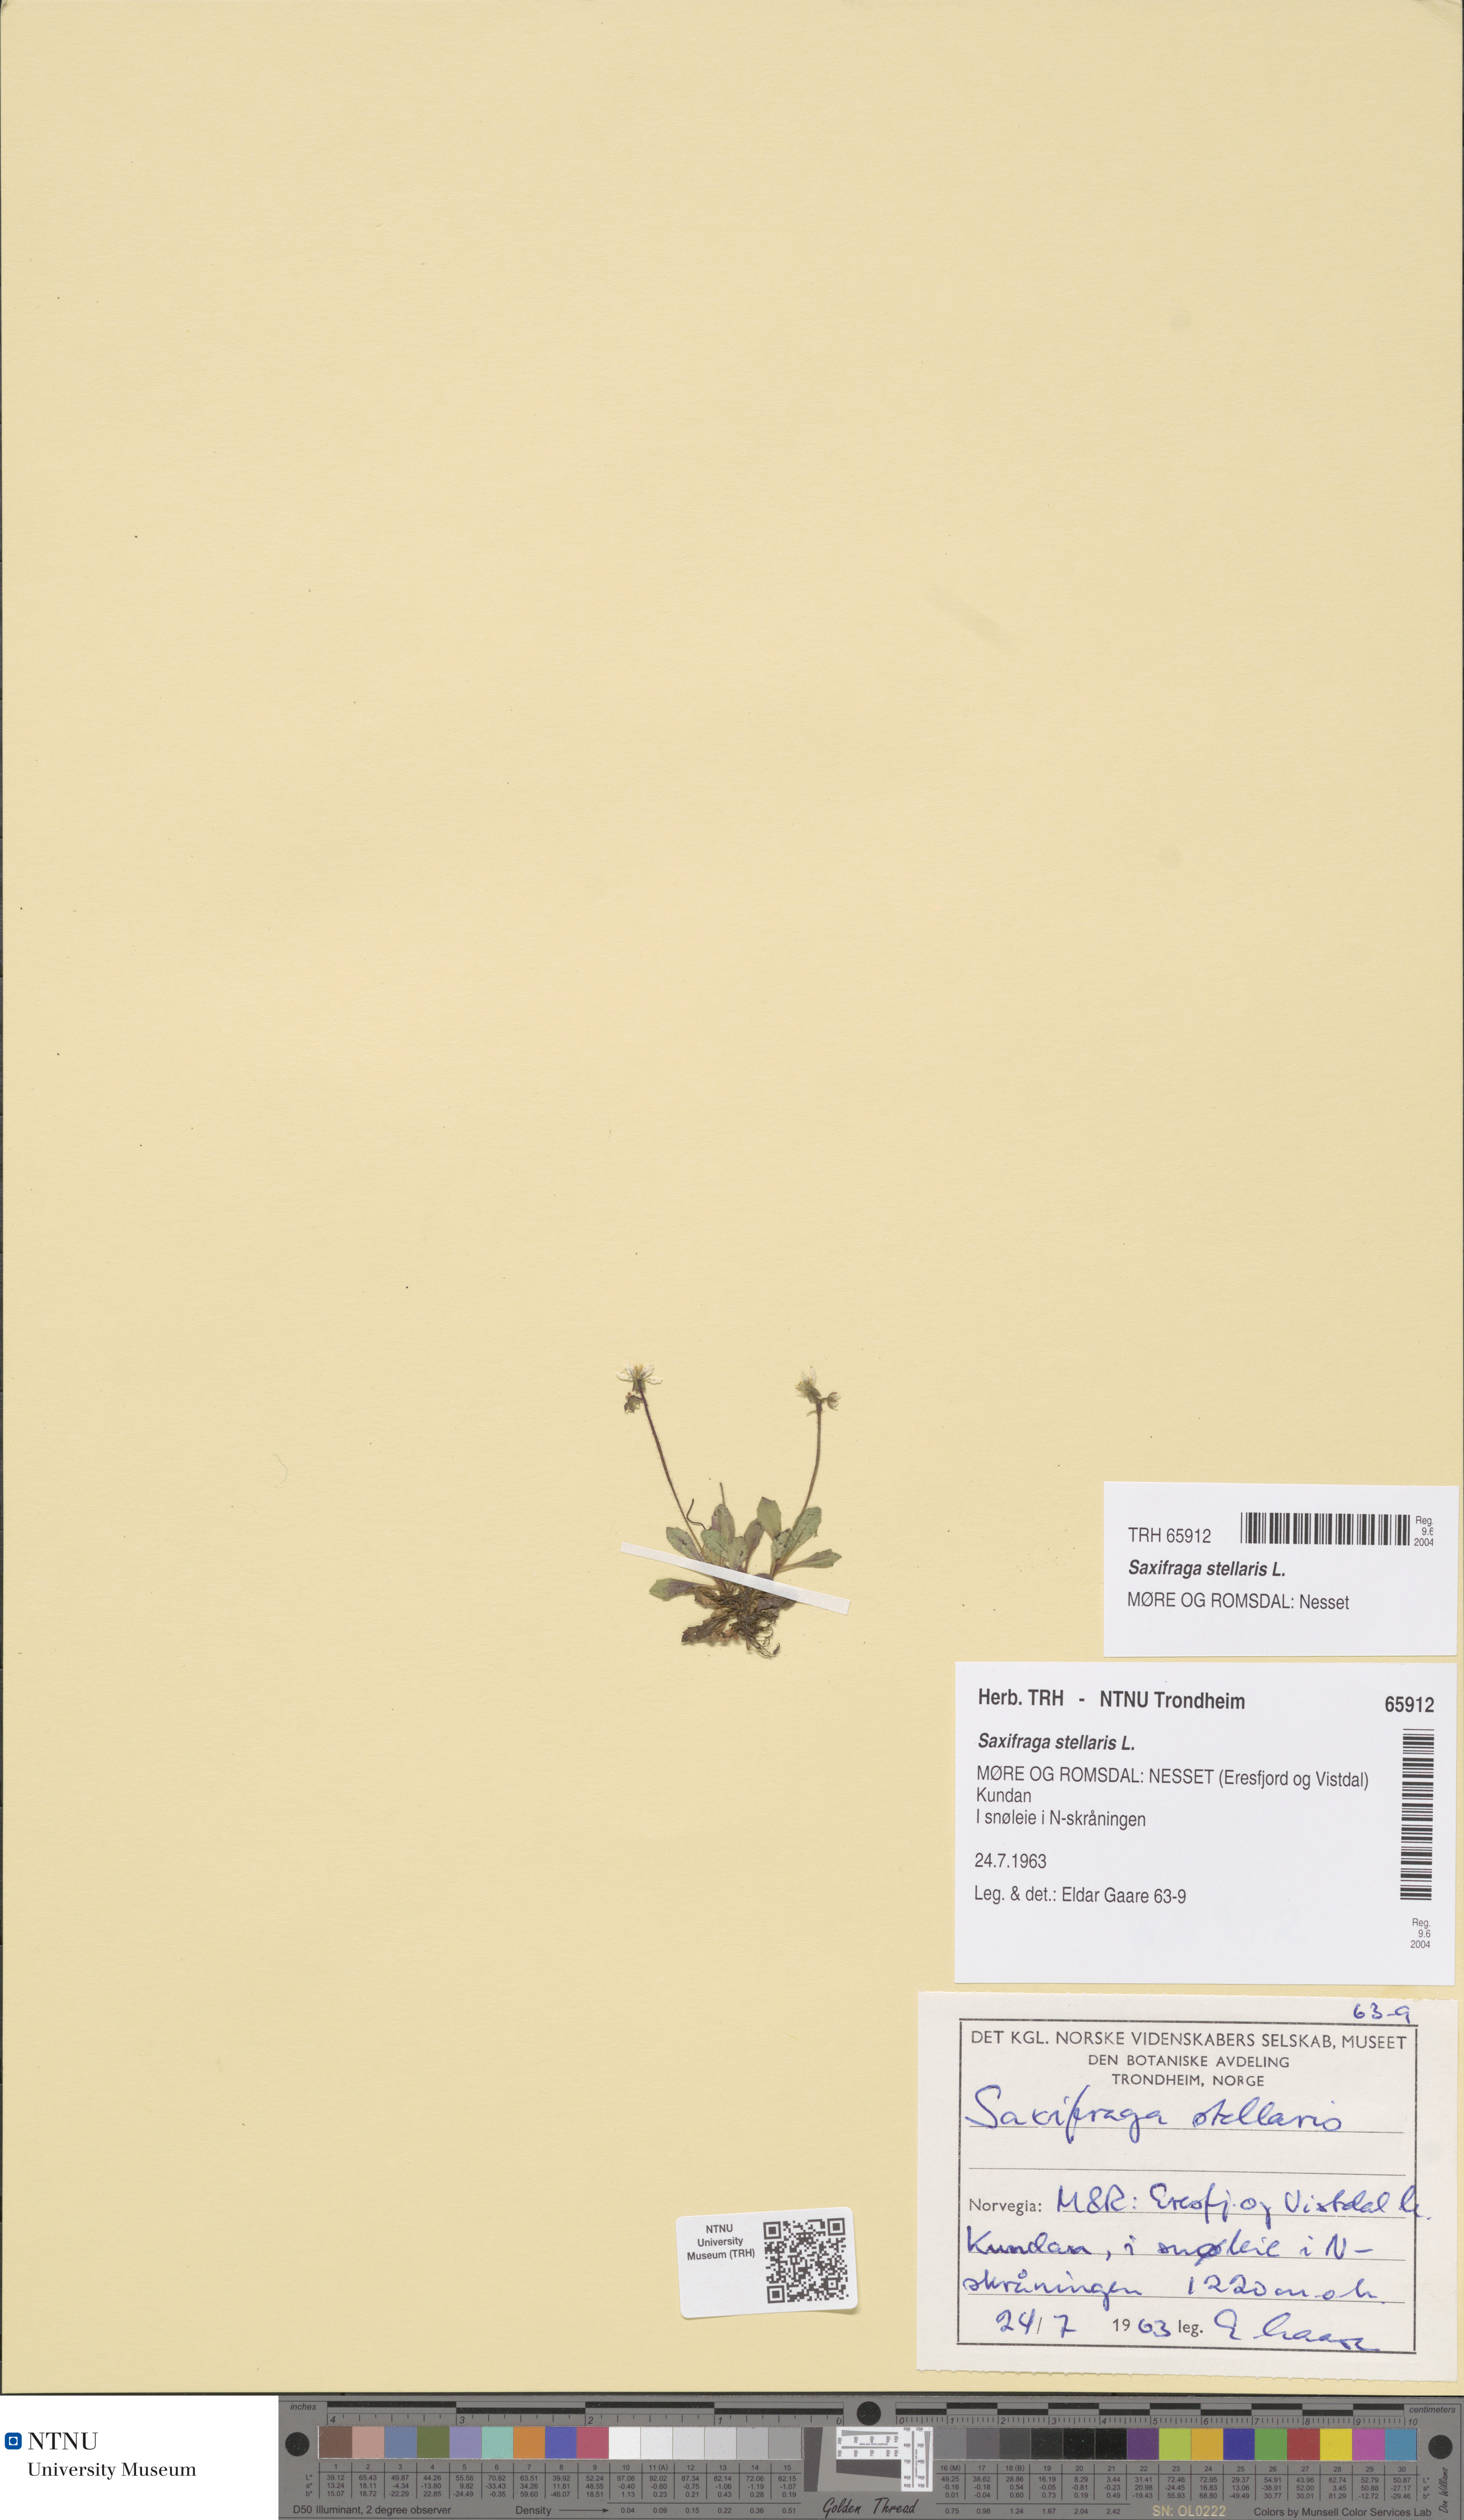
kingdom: Plantae
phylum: Tracheophyta
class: Magnoliopsida
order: Saxifragales
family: Saxifragaceae
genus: Micranthes
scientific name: Micranthes stellaris
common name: Starry saxifrage
